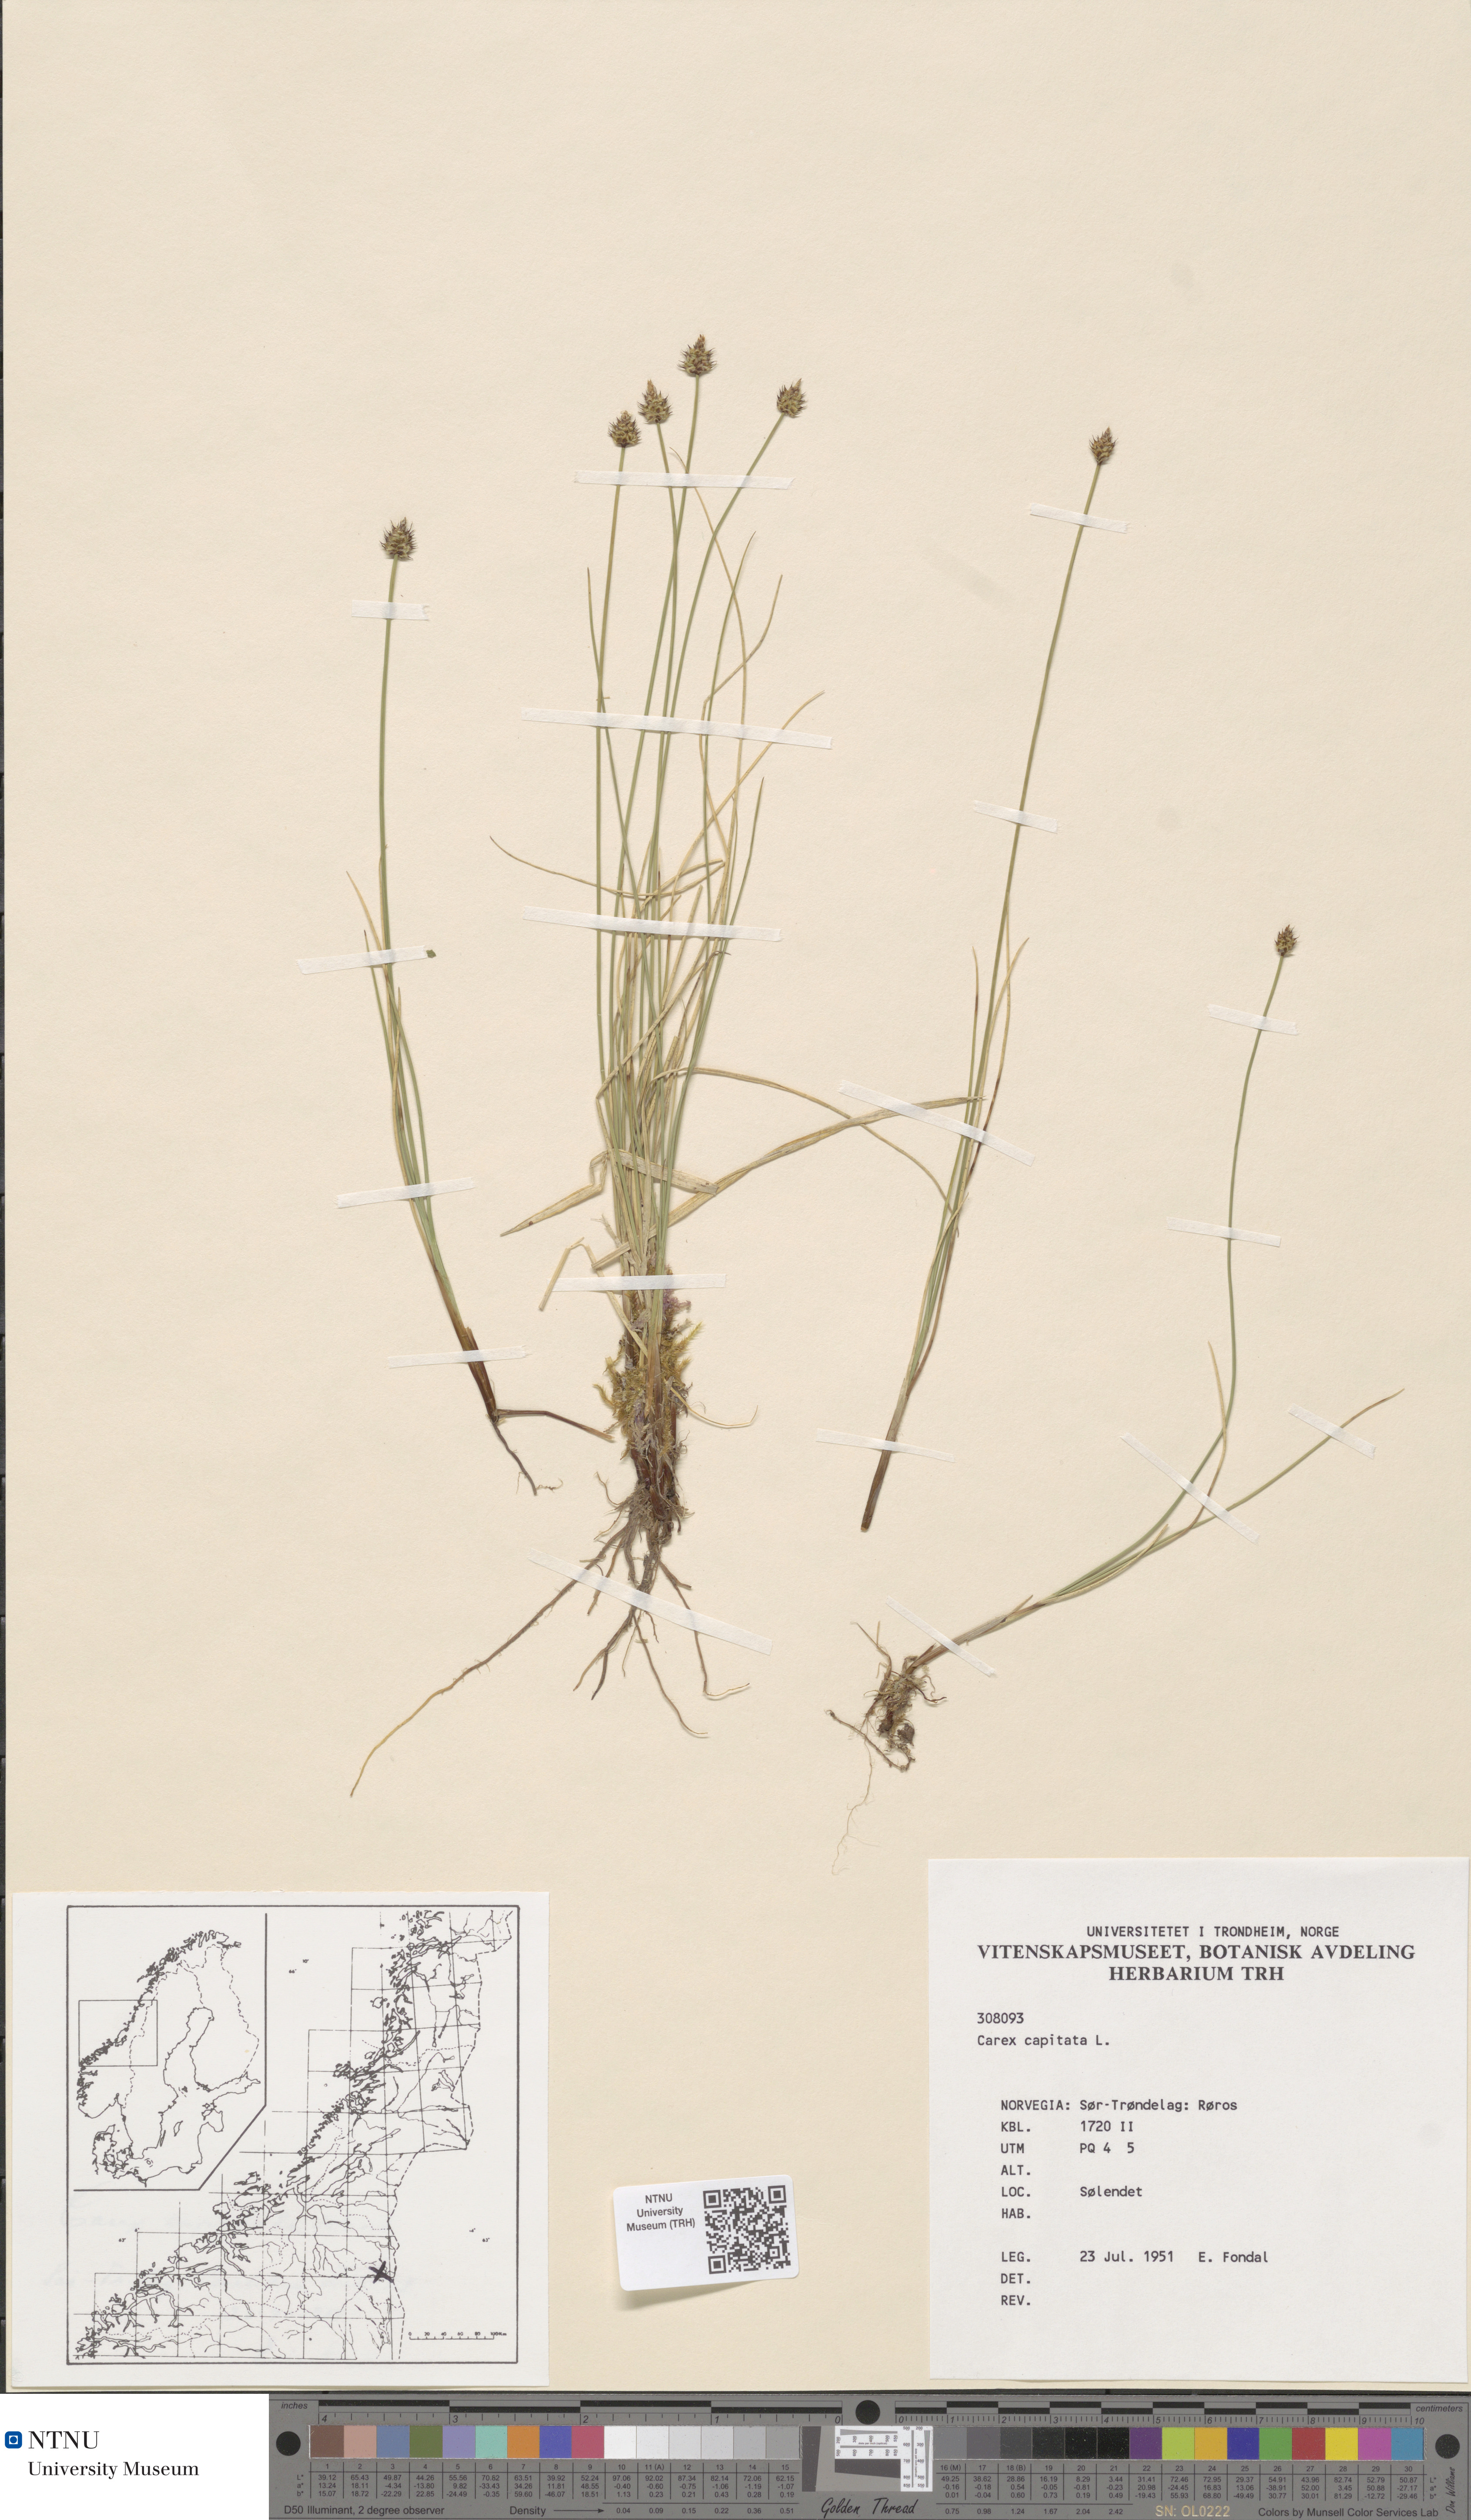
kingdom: Plantae
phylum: Tracheophyta
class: Liliopsida
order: Poales
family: Cyperaceae
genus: Carex
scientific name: Carex capitata
